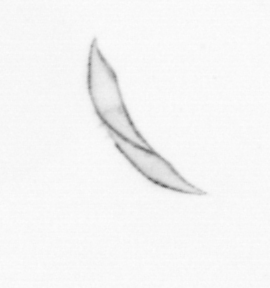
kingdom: Chromista
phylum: Ochrophyta
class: Bacillariophyceae
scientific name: Bacillariophyceae
